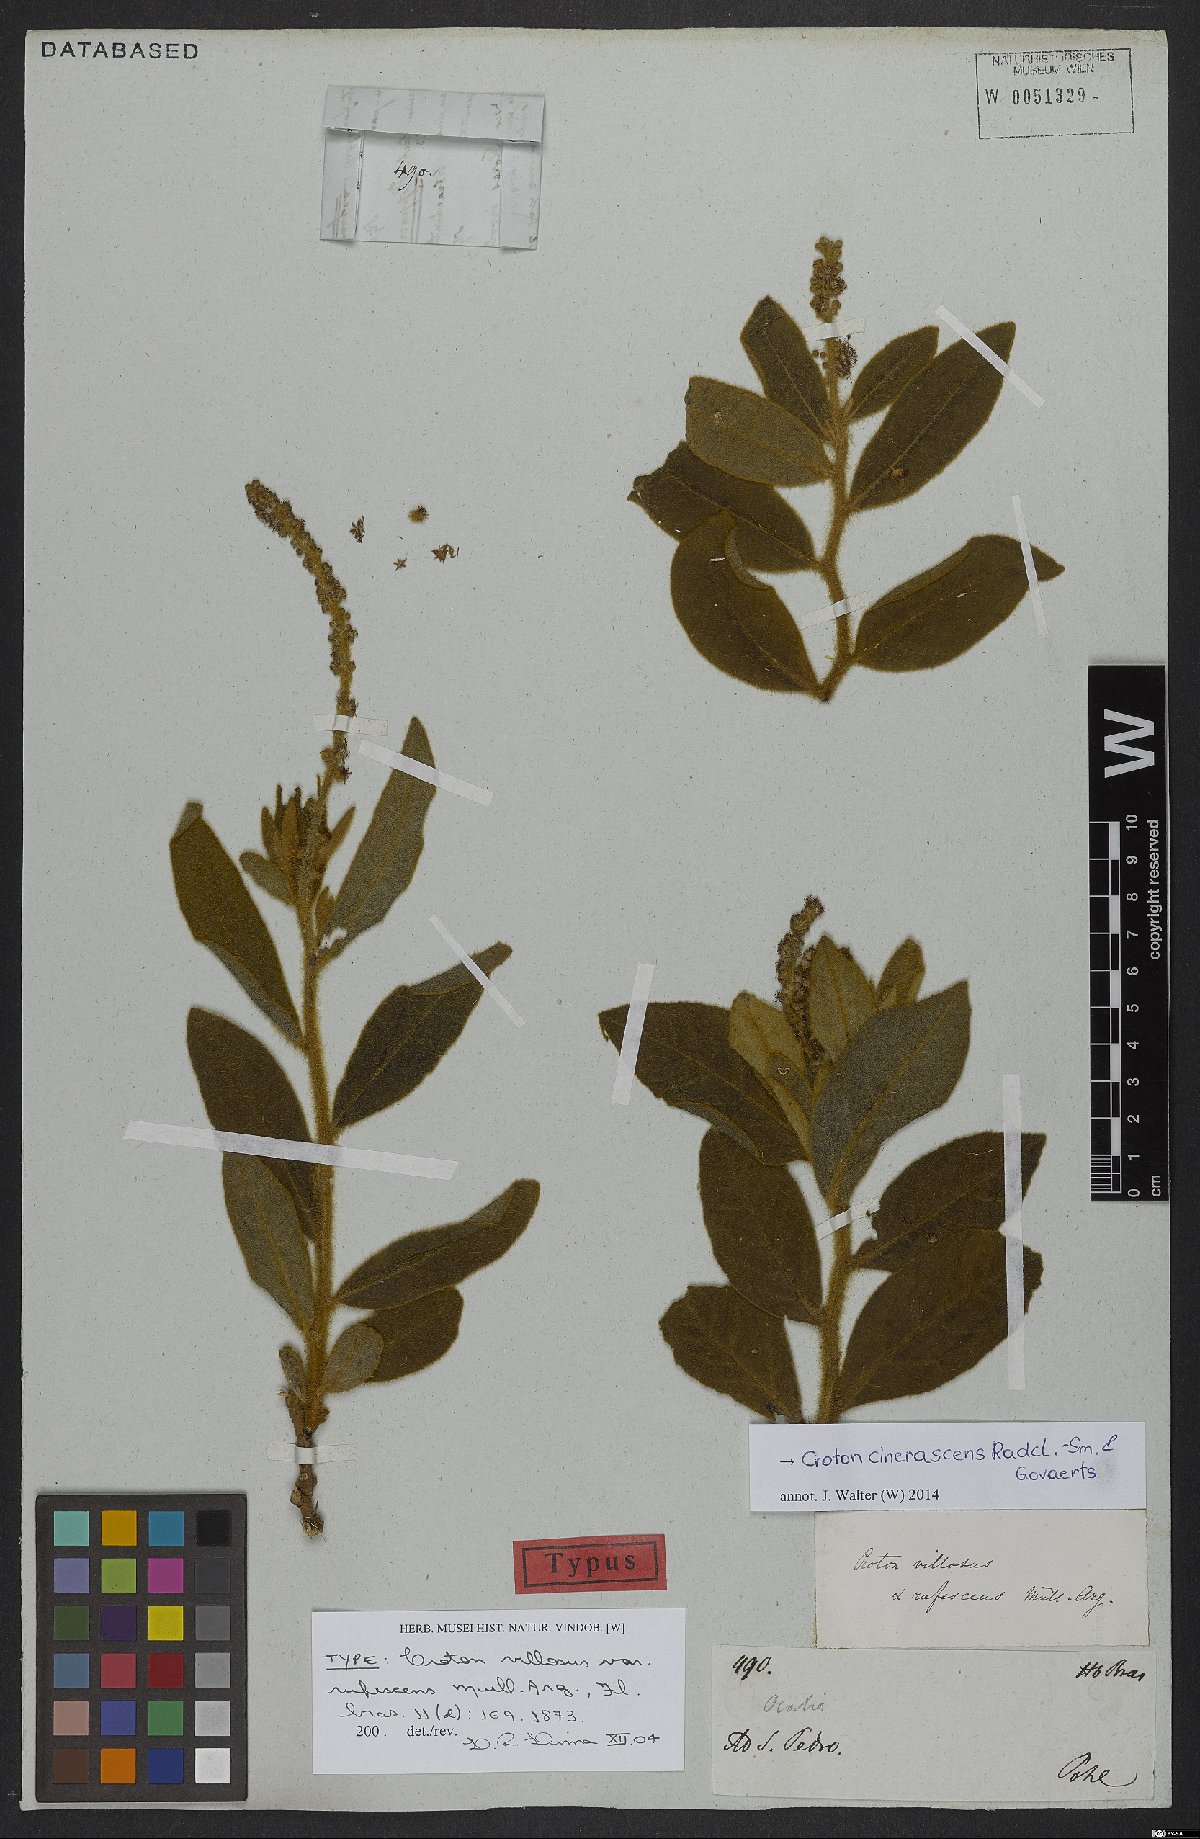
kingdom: Plantae
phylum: Tracheophyta
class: Magnoliopsida
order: Malpighiales
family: Euphorbiaceae
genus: Croton
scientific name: Croton cinerascens
